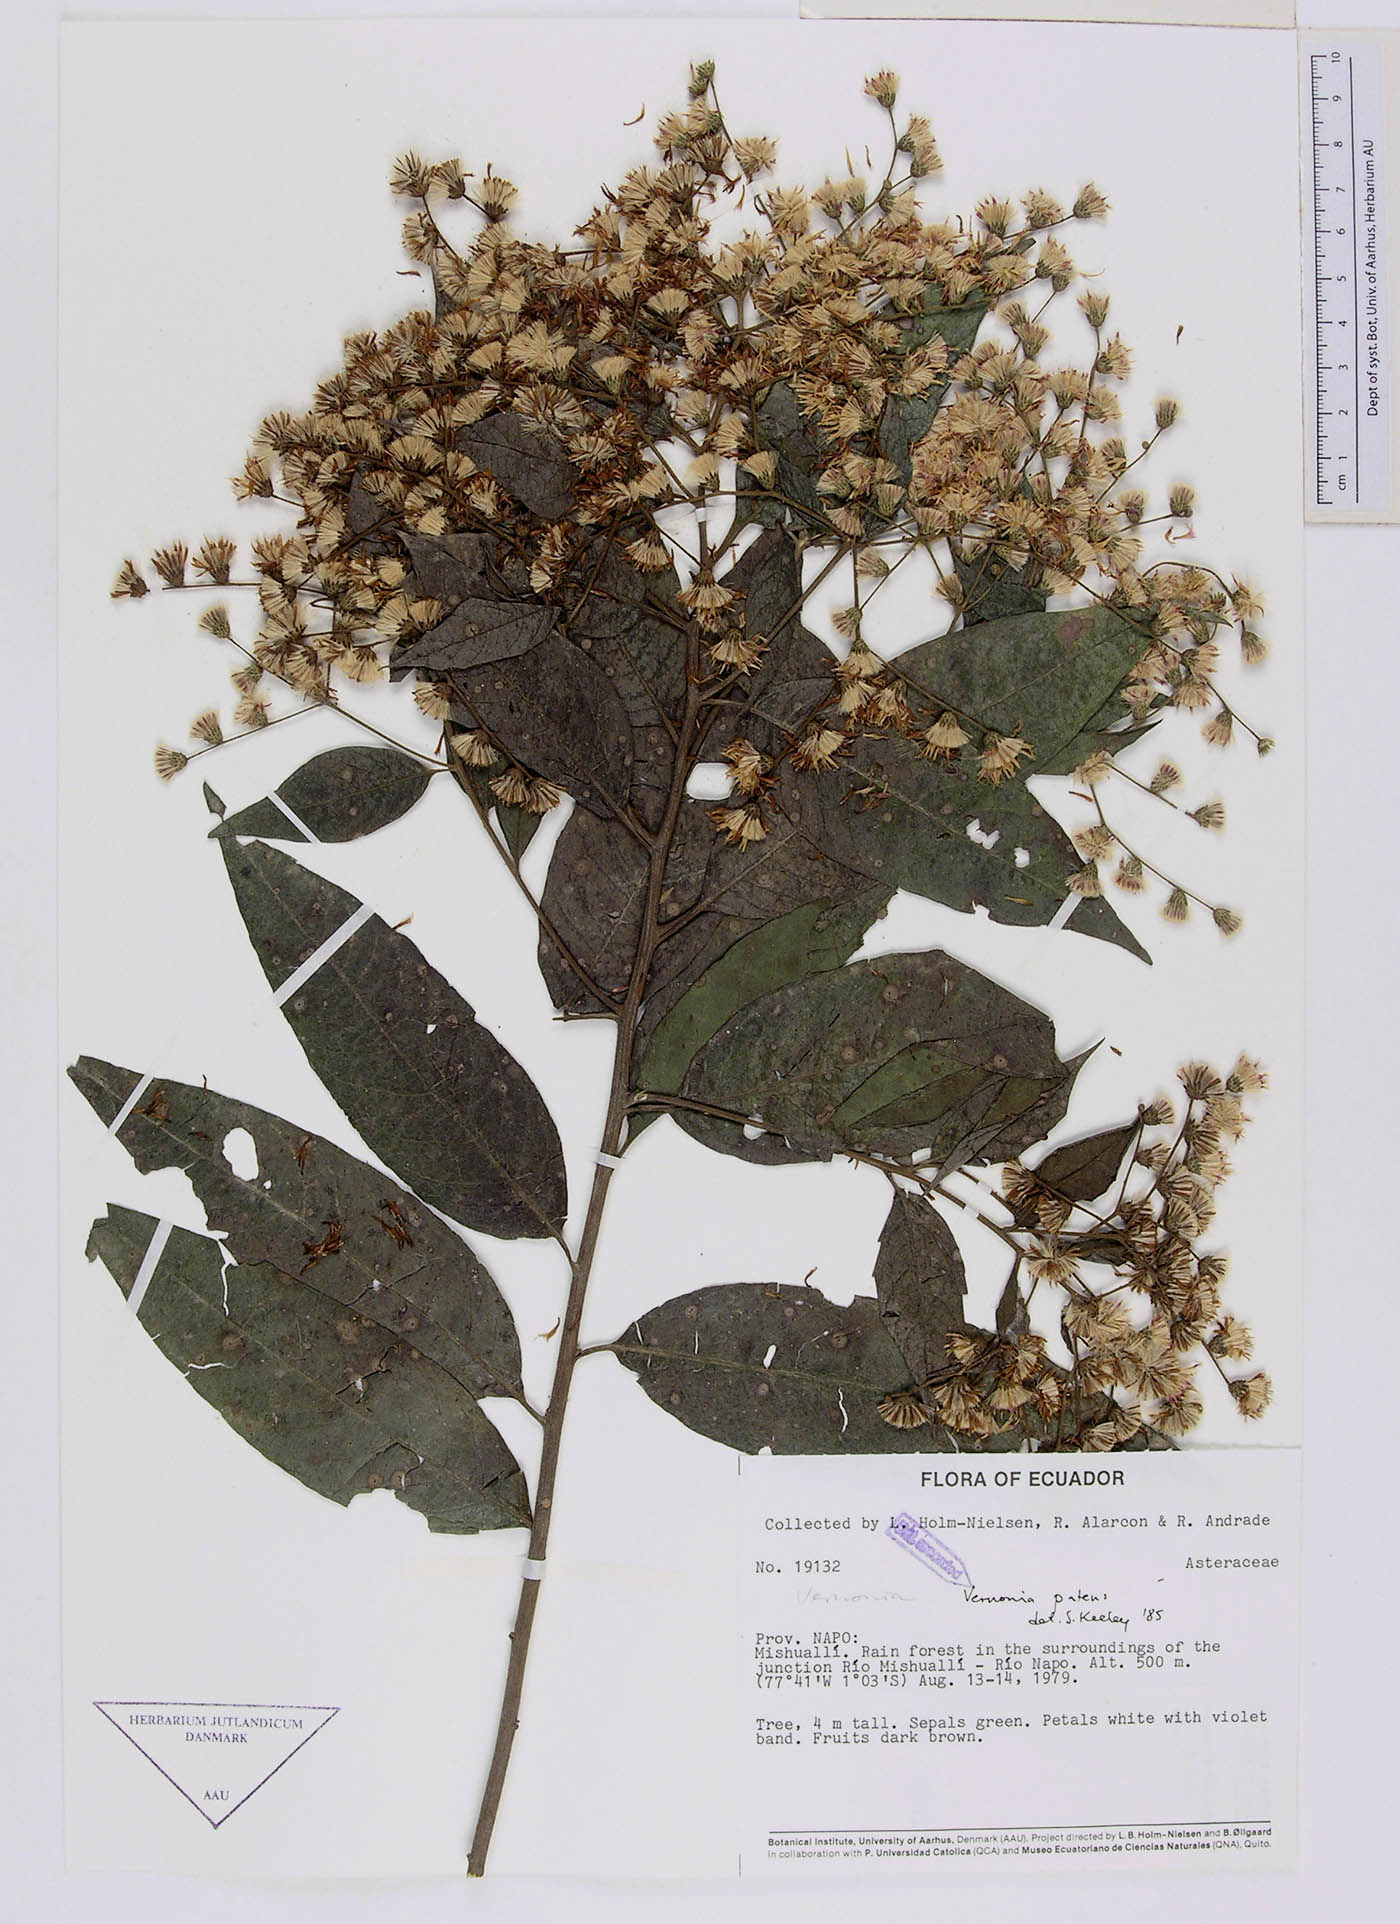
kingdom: Plantae
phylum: Tracheophyta
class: Magnoliopsida
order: Asterales
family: Asteraceae
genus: Vernonanthura
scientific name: Vernonanthura patens
